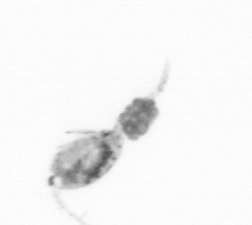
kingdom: Animalia
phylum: Arthropoda
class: Copepoda
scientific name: Copepoda
